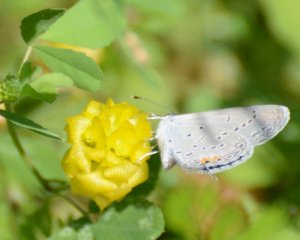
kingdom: Animalia
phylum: Arthropoda
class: Insecta
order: Lepidoptera
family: Lycaenidae
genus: Elkalyce
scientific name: Elkalyce comyntas
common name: Eastern Tailed-Blue
